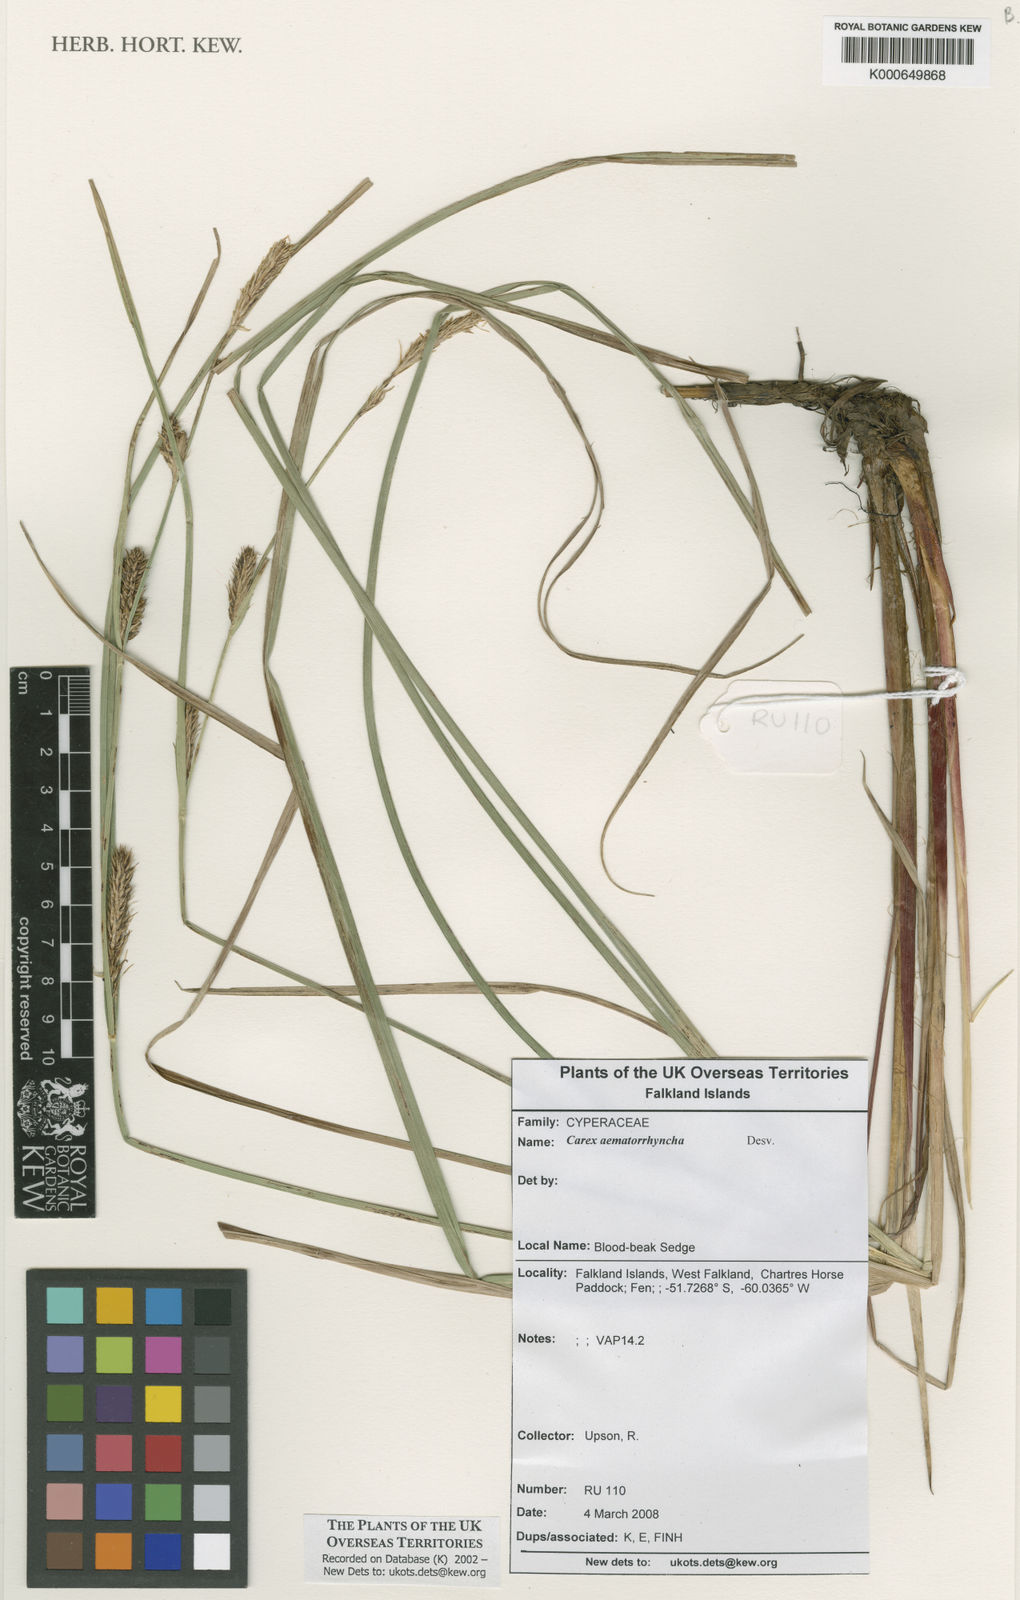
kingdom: Plantae
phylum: Tracheophyta
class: Liliopsida
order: Poales
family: Cyperaceae
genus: Carex
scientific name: Carex aematorhyncha
